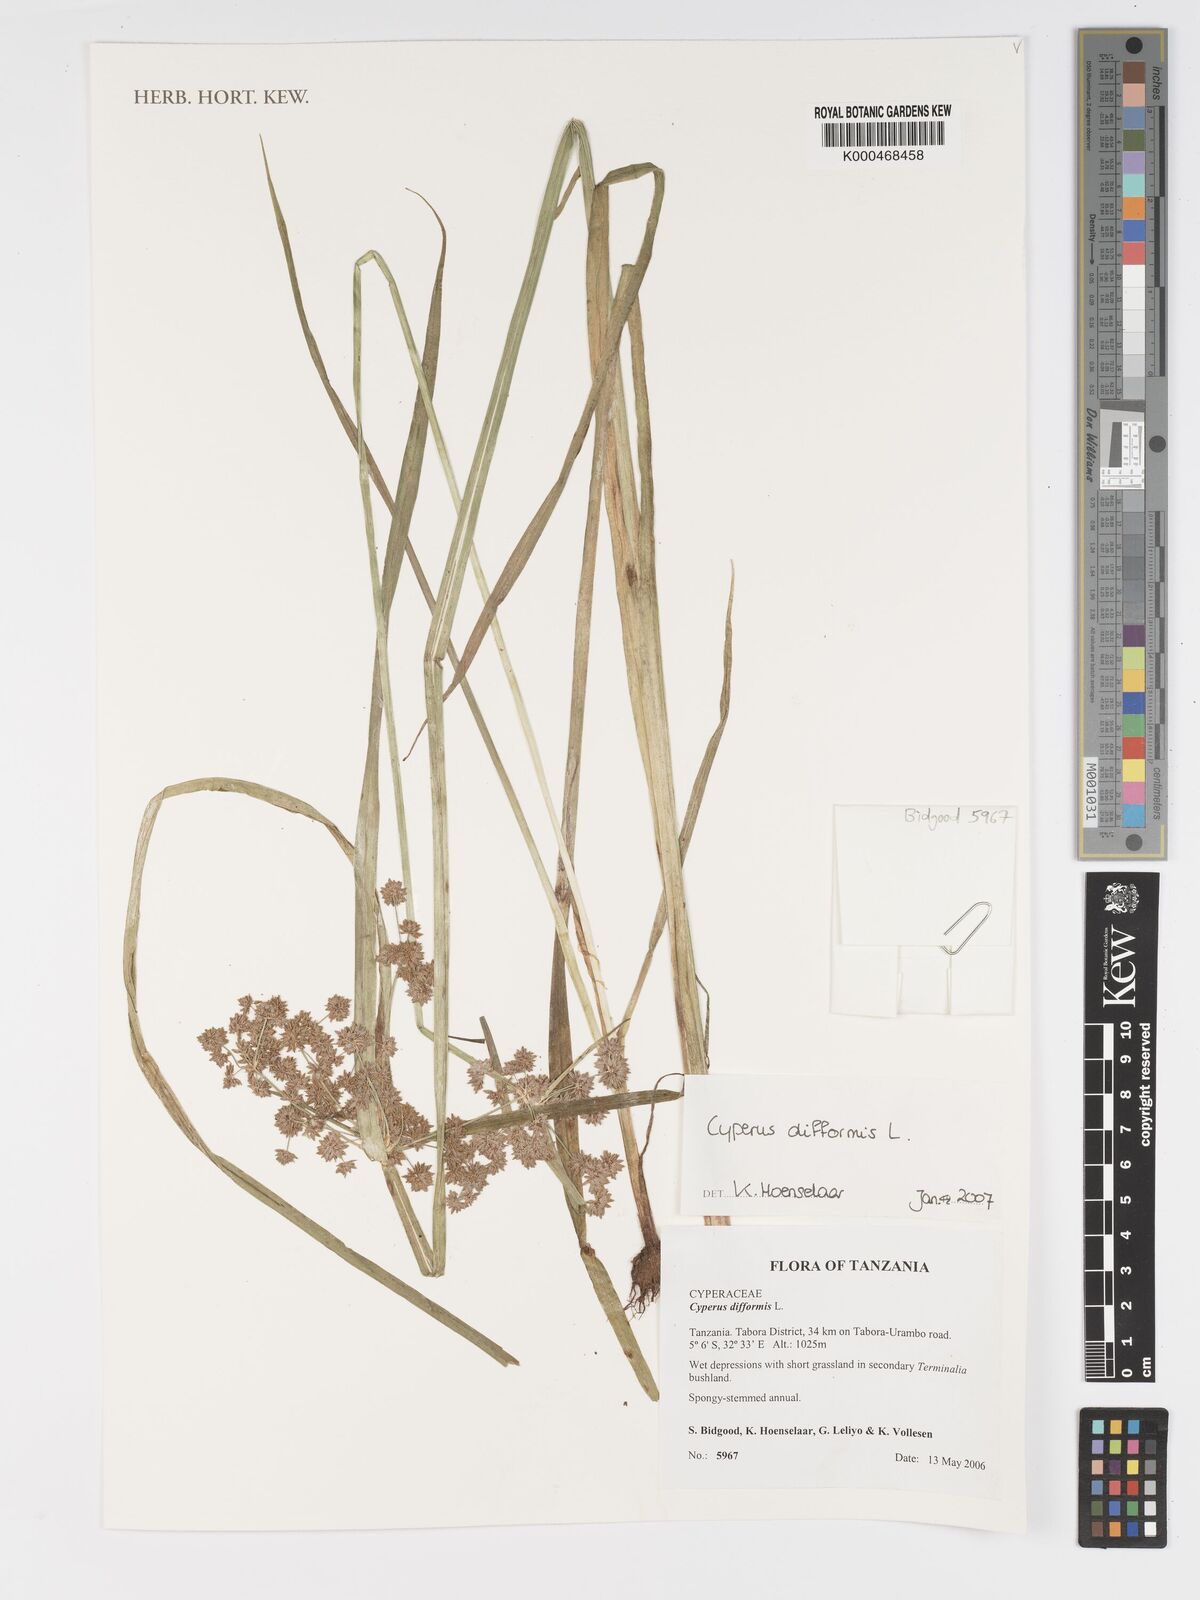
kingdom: Plantae
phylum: Tracheophyta
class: Liliopsida
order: Poales
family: Cyperaceae
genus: Cyperus
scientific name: Cyperus difformis
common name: Variable flatsedge
